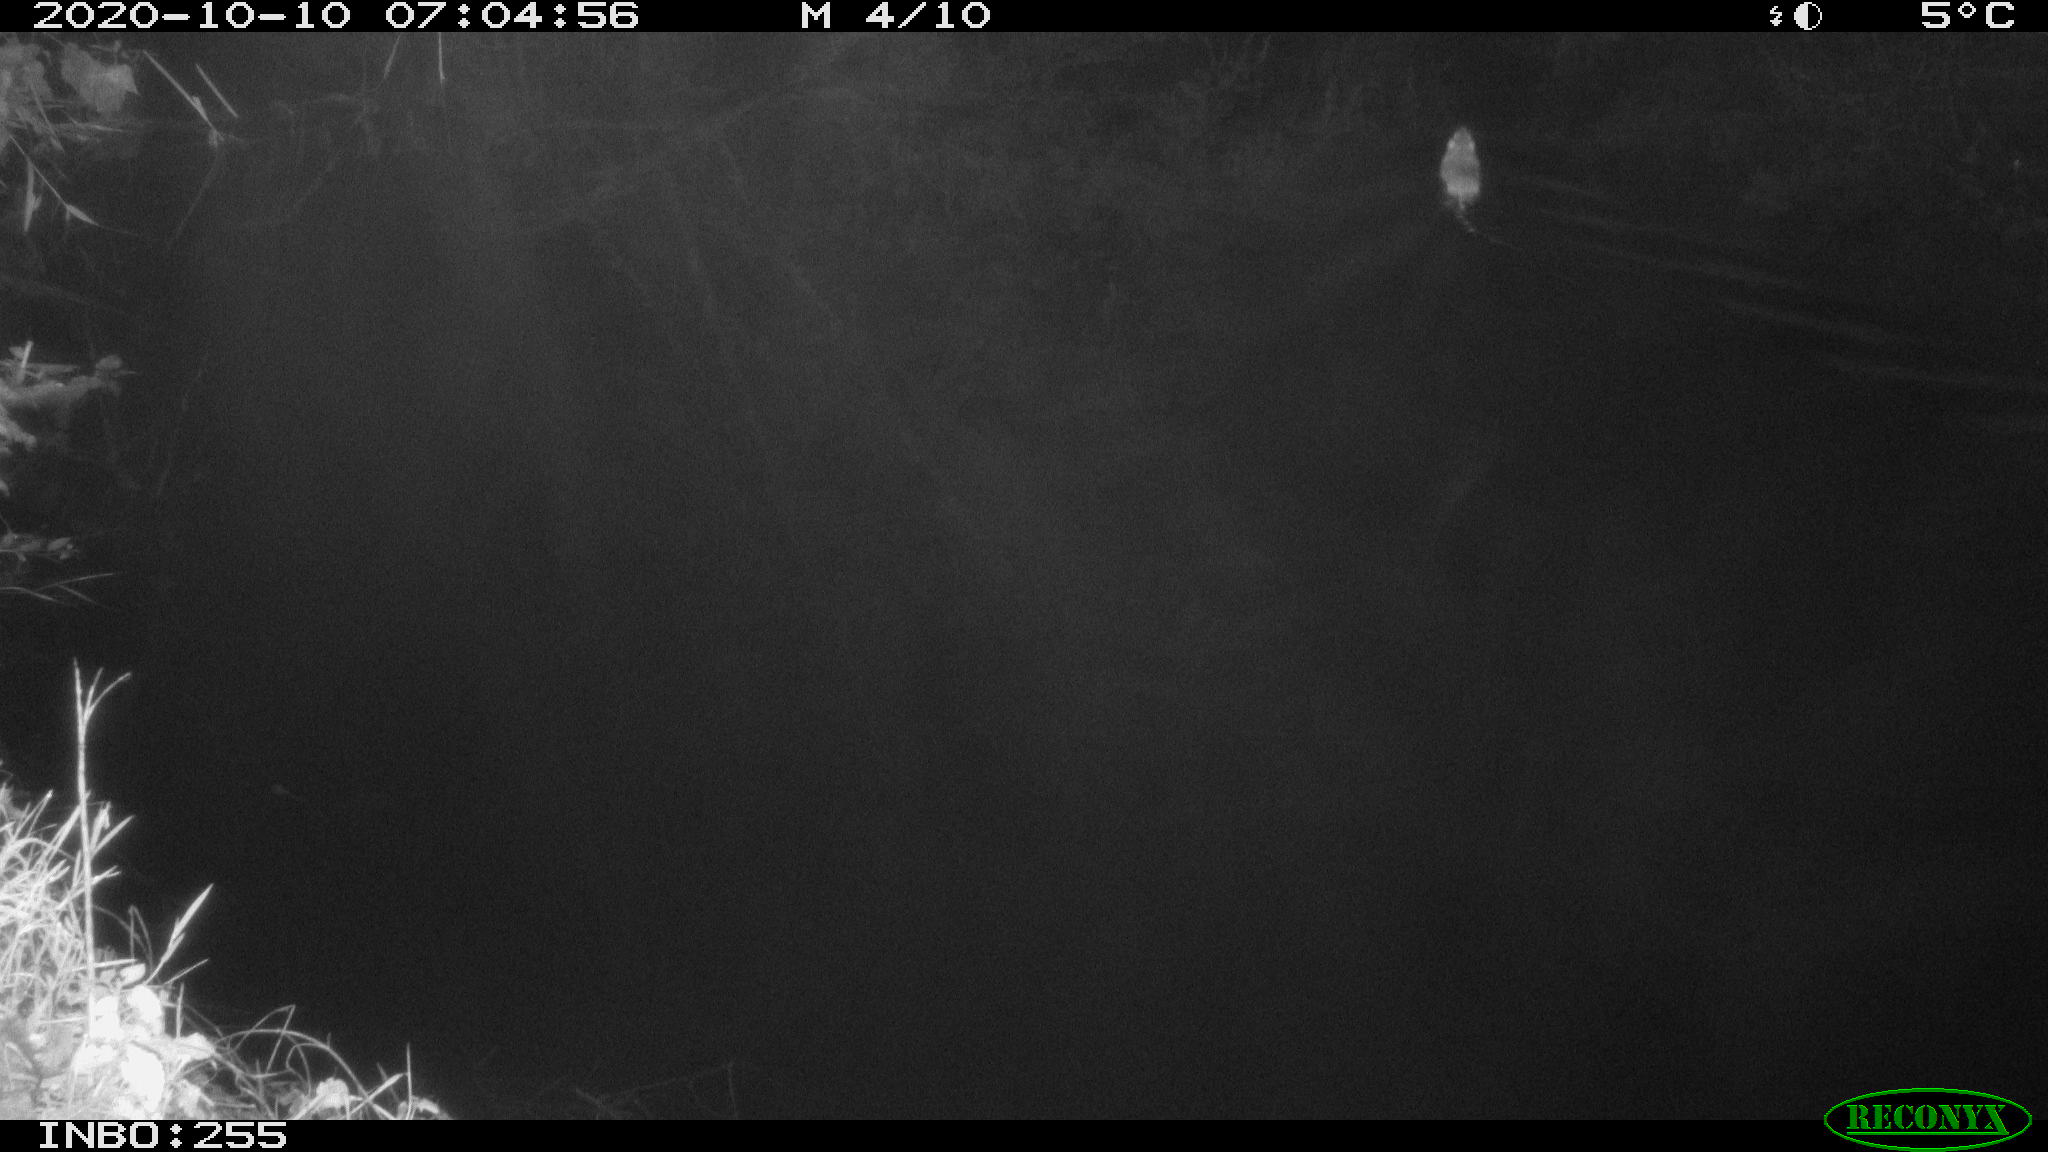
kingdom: Animalia
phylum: Chordata
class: Mammalia
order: Rodentia
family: Muridae
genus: Rattus
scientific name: Rattus norvegicus
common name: Brown rat
